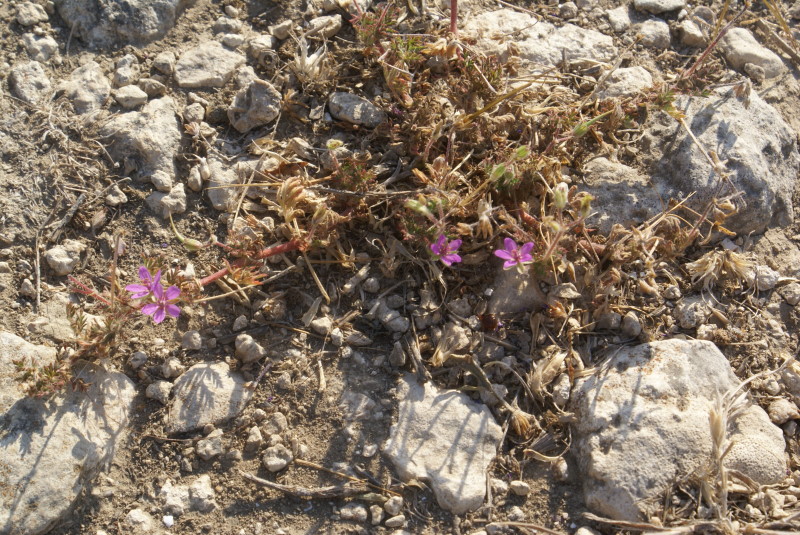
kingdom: Plantae
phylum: Tracheophyta
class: Magnoliopsida
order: Geraniales
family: Geraniaceae
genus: Erodium
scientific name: Erodium cicutarium
